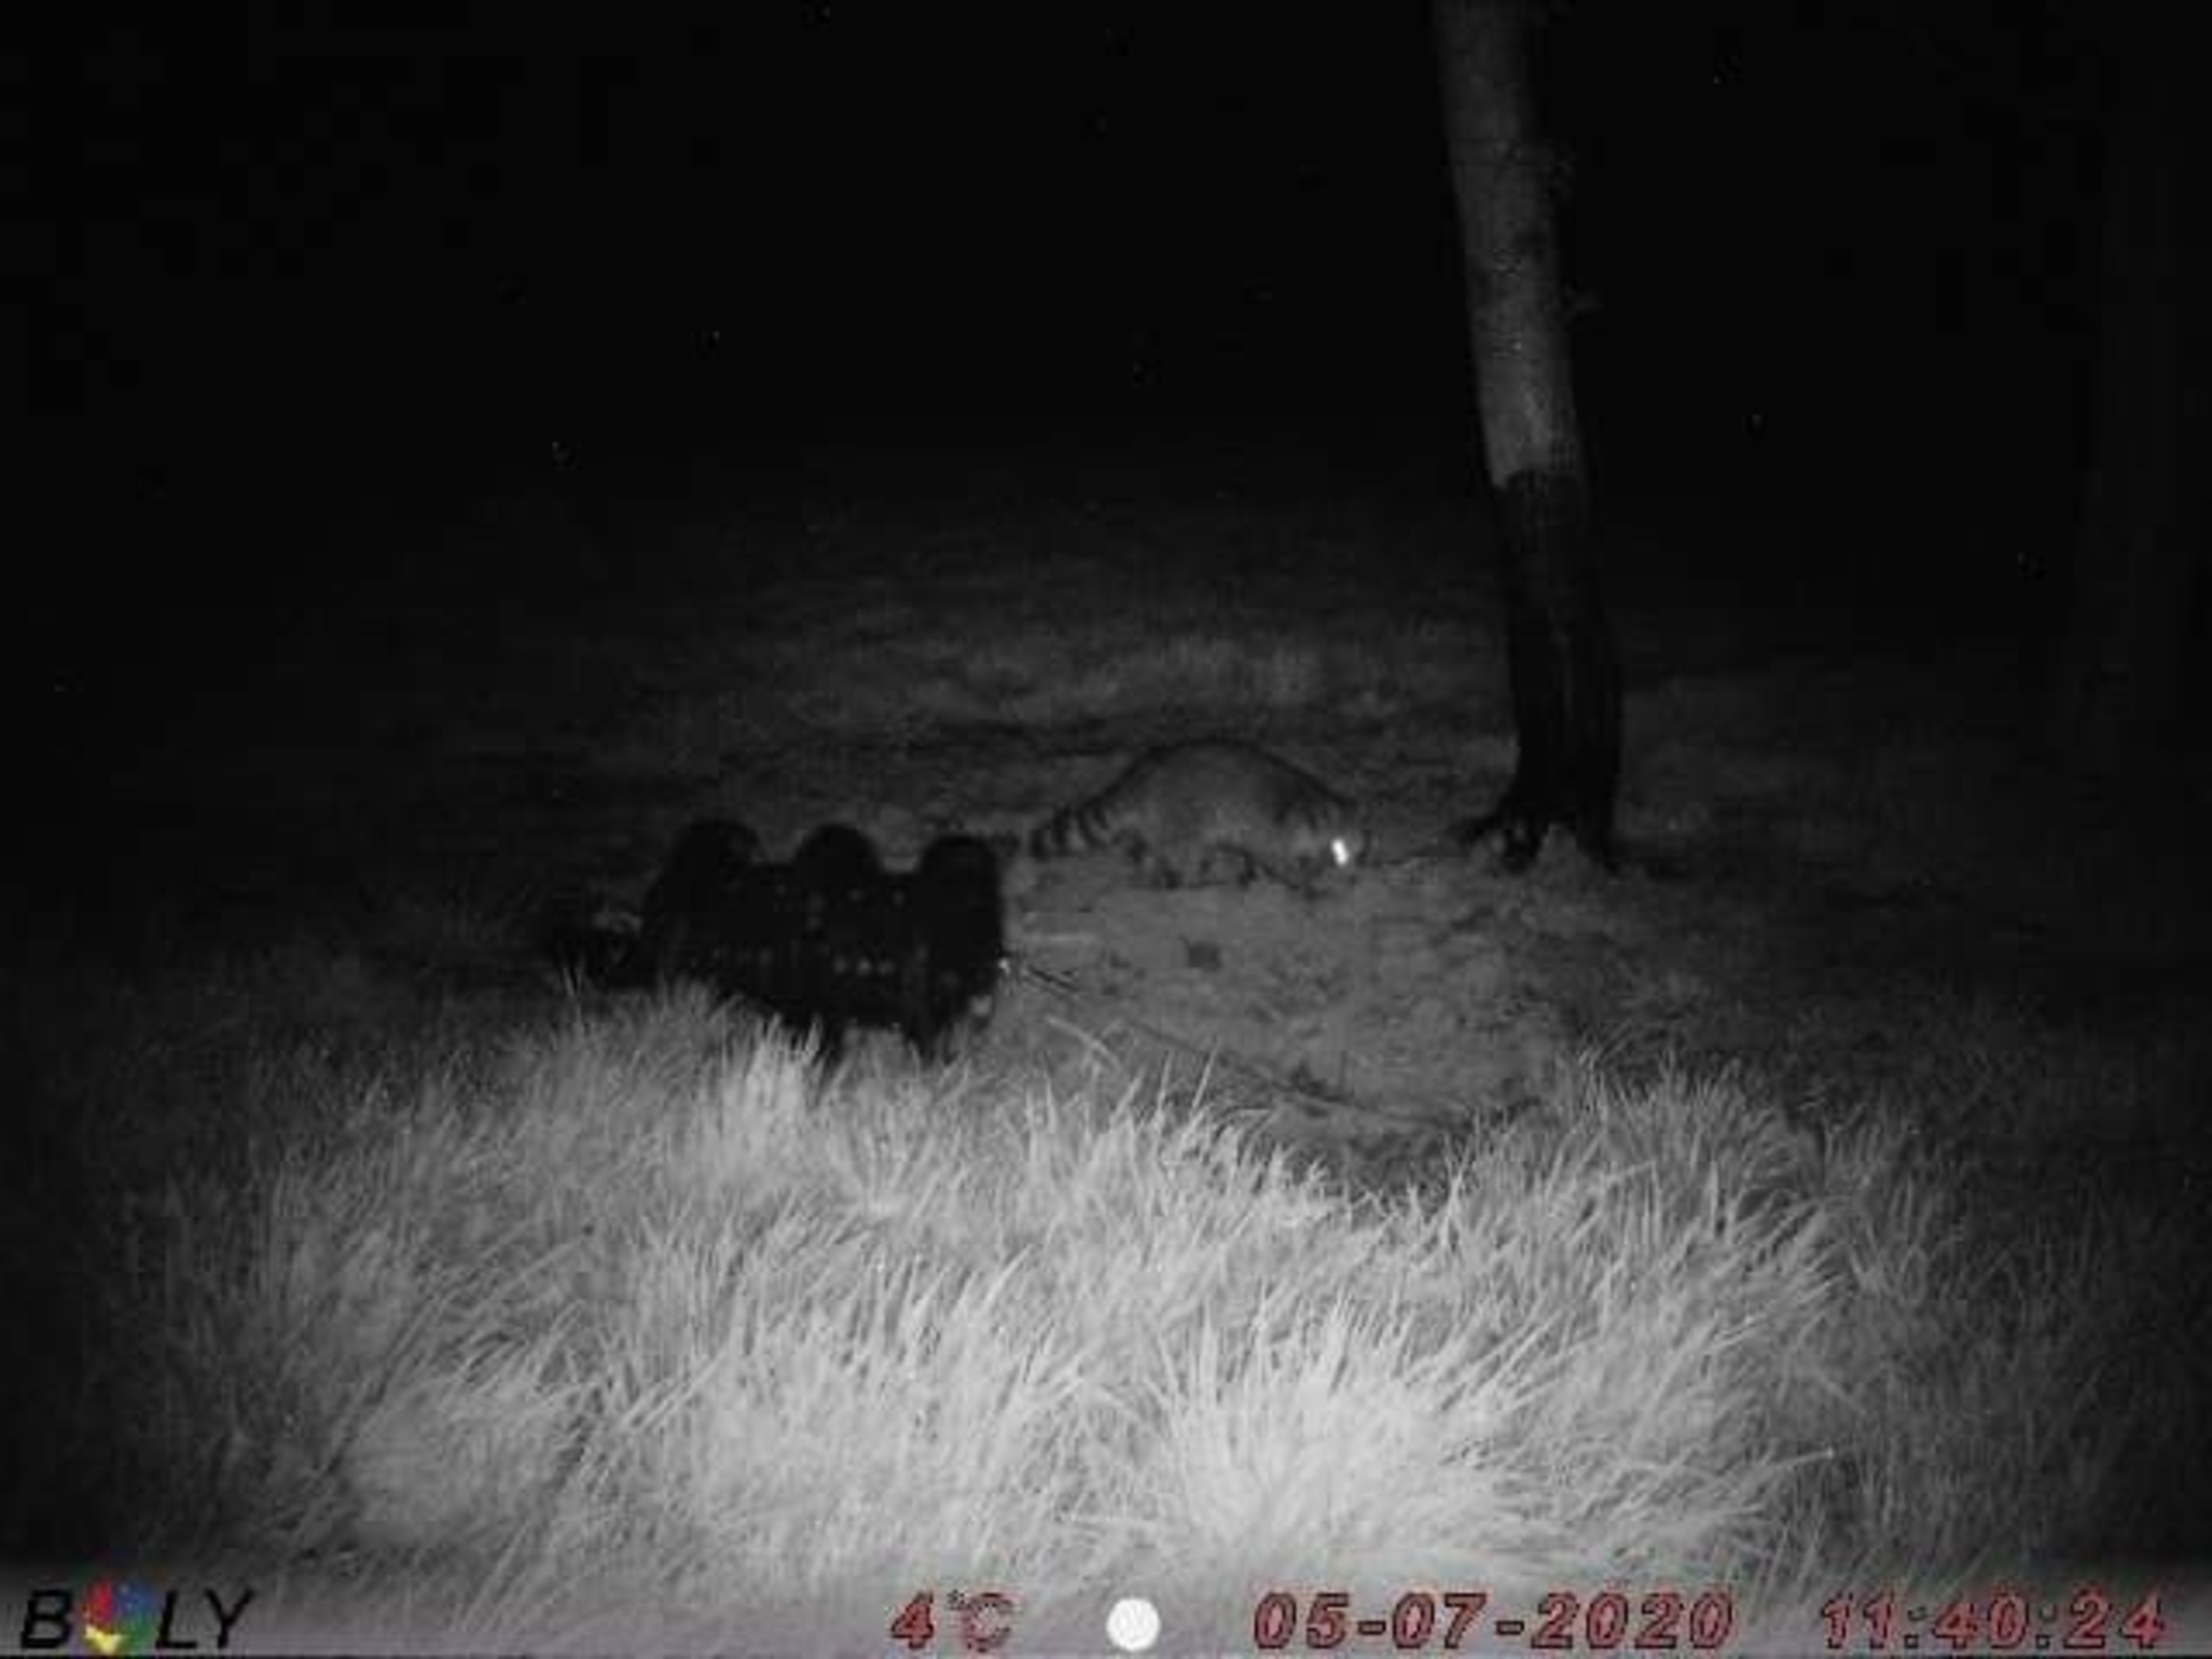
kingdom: Animalia
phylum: Chordata
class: Mammalia
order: Carnivora
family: Procyonidae
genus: Procyon
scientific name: Procyon lotor
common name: Vaskebjørn
